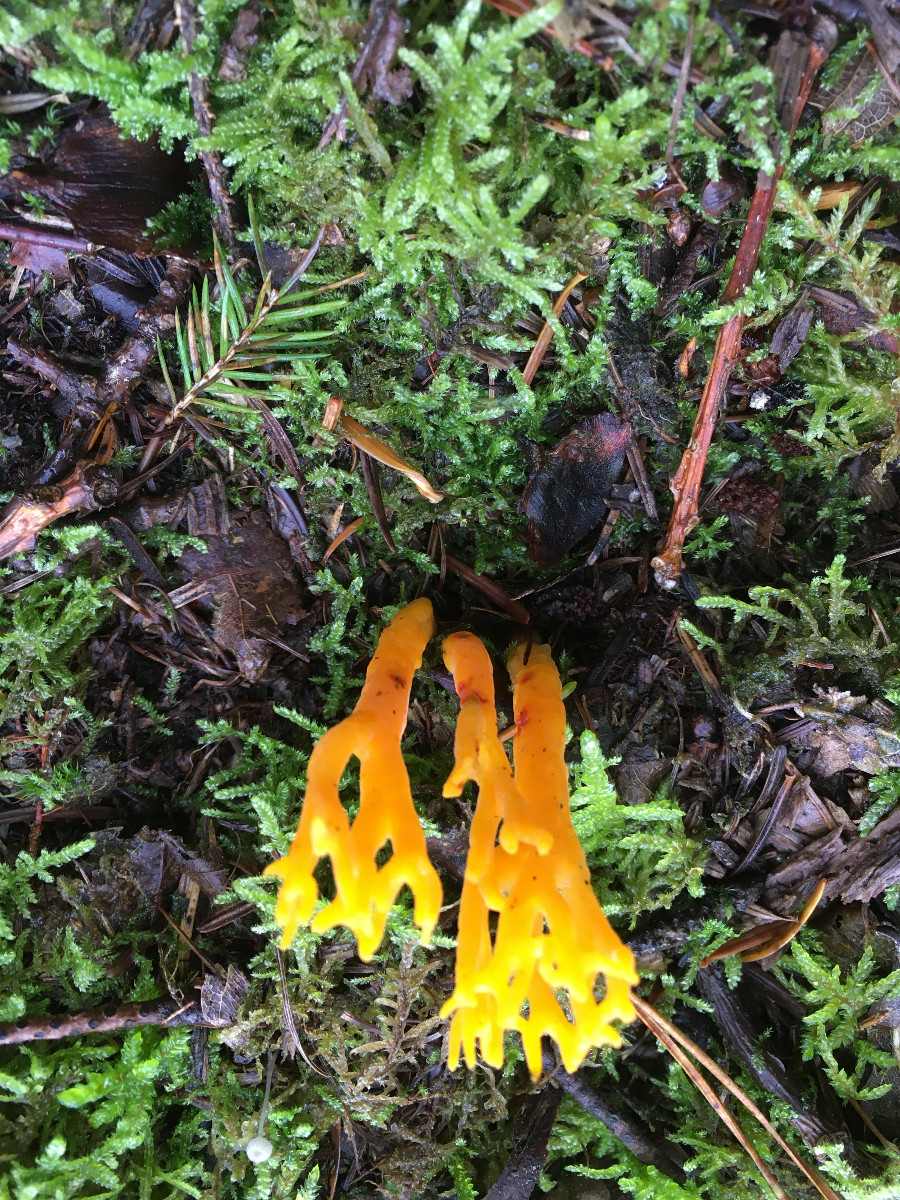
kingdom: Fungi
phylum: Basidiomycota
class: Dacrymycetes
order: Dacrymycetales
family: Dacrymycetaceae
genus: Calocera
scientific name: Calocera viscosa
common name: almindelig guldgaffel
